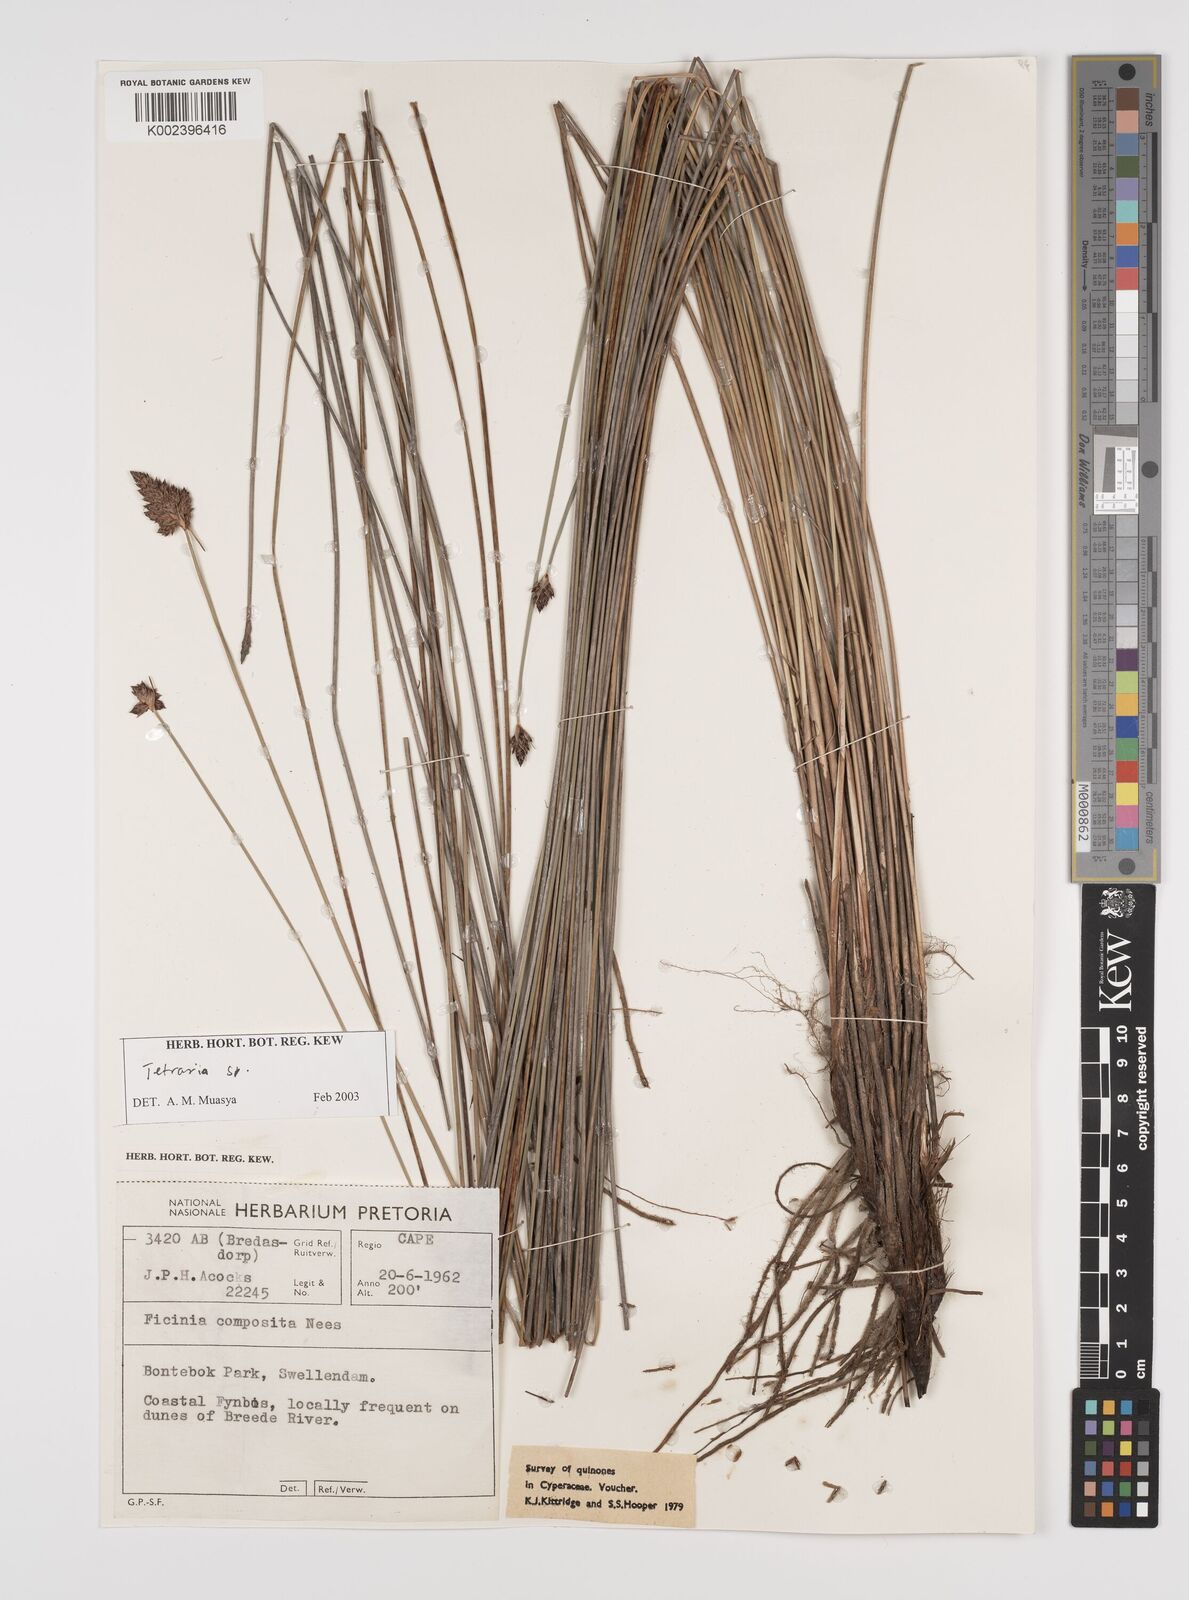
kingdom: Plantae
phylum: Tracheophyta
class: Liliopsida
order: Poales
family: Cyperaceae
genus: Tetraria
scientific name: Tetraria
